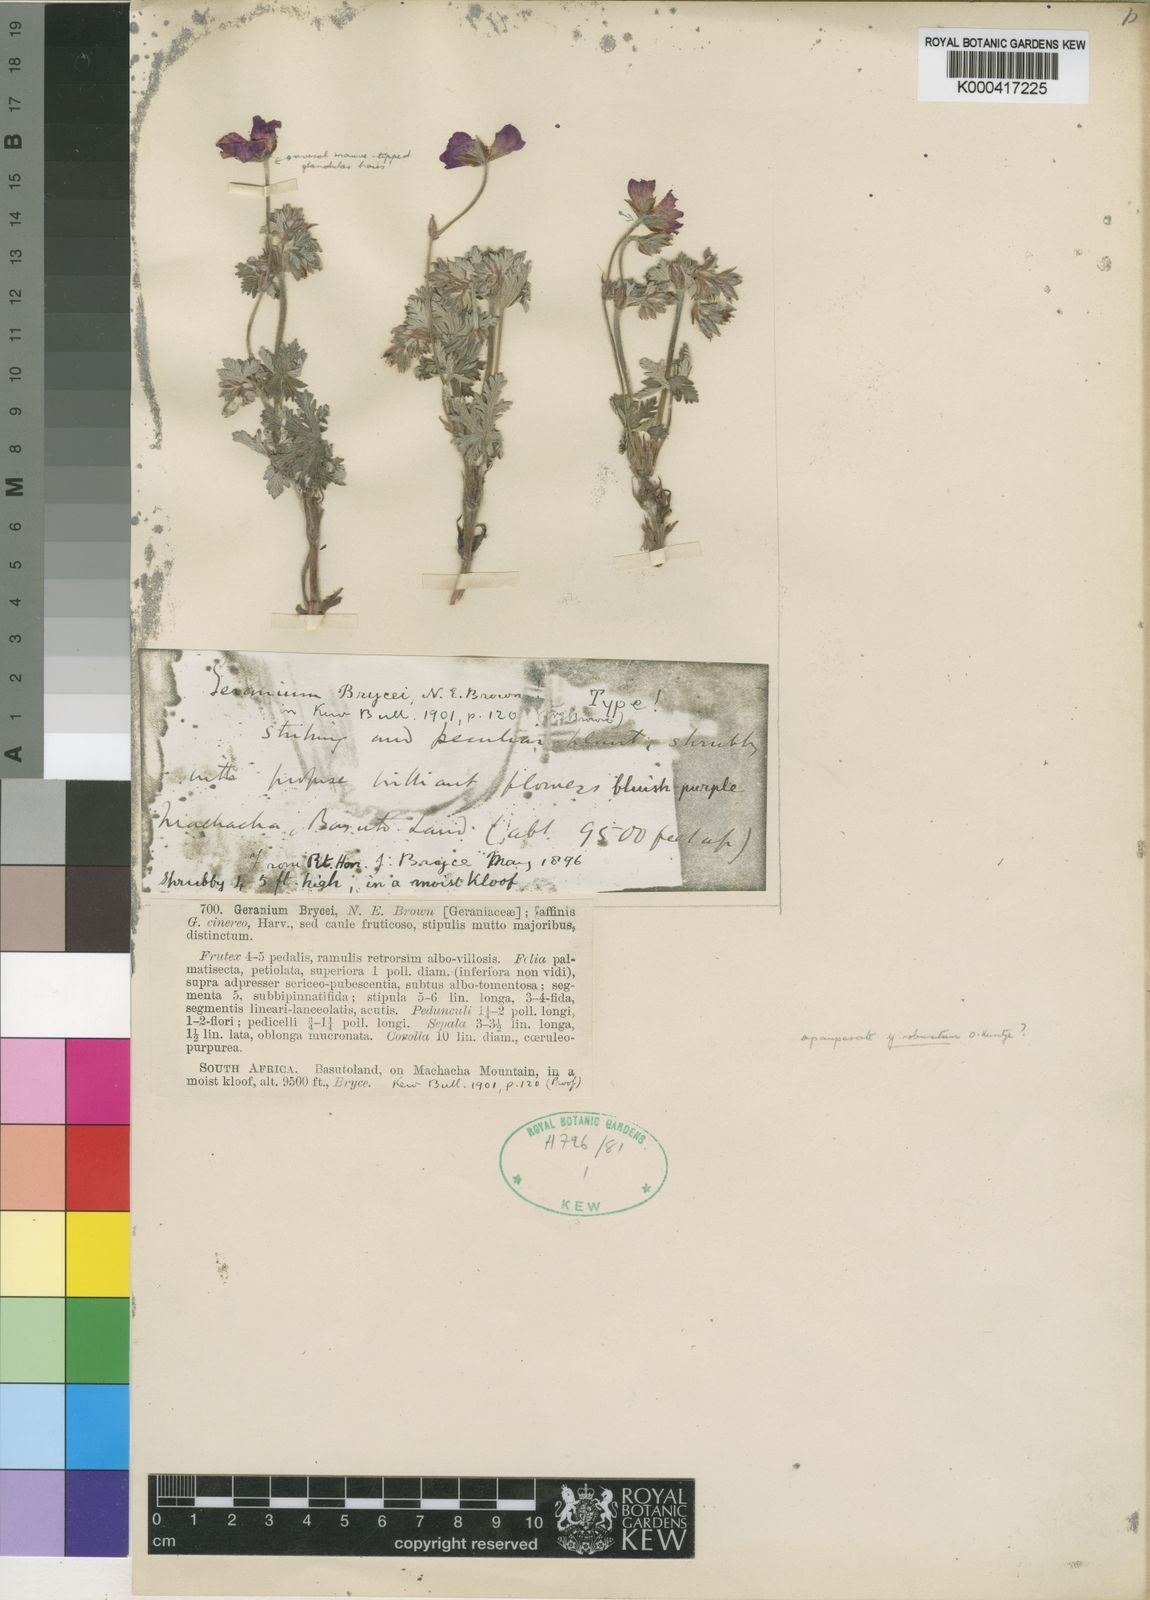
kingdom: Plantae
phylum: Tracheophyta
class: Magnoliopsida
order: Geraniales
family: Geraniaceae
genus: Geranium
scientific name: Geranium brycei
